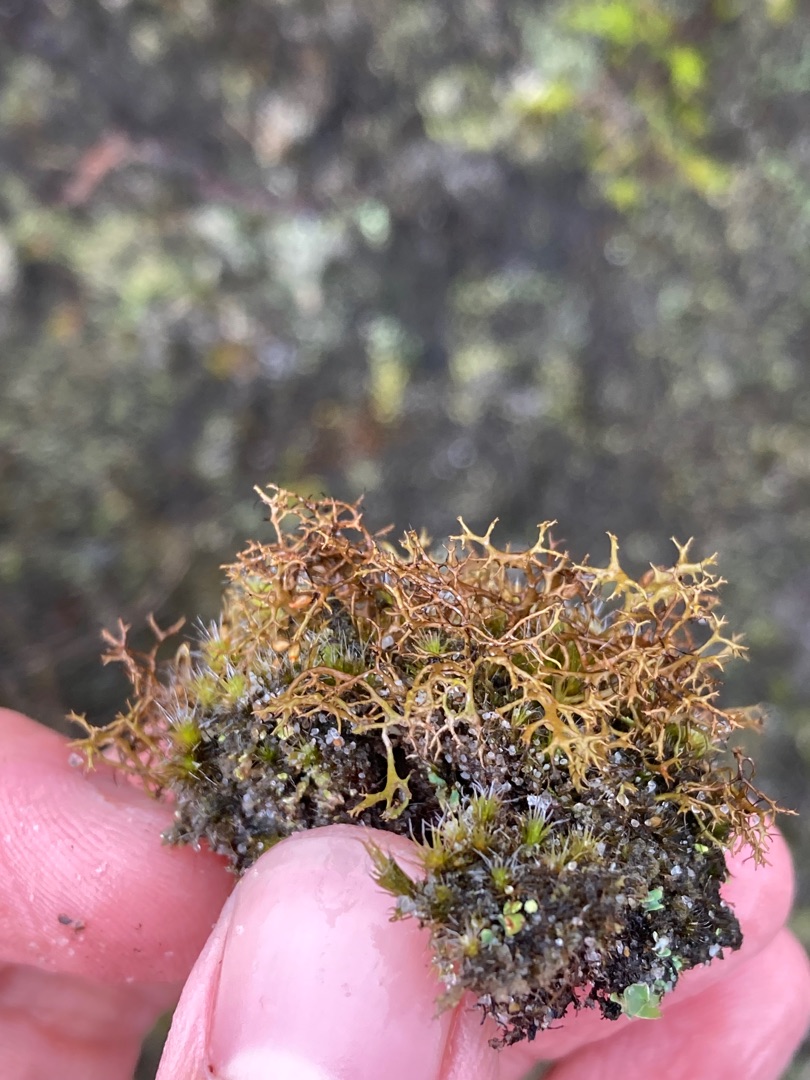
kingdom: Fungi
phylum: Ascomycota
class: Lecanoromycetes
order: Lecanorales
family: Parmeliaceae
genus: Cetraria
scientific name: Cetraria muricata
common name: Tue-tjørnelav
